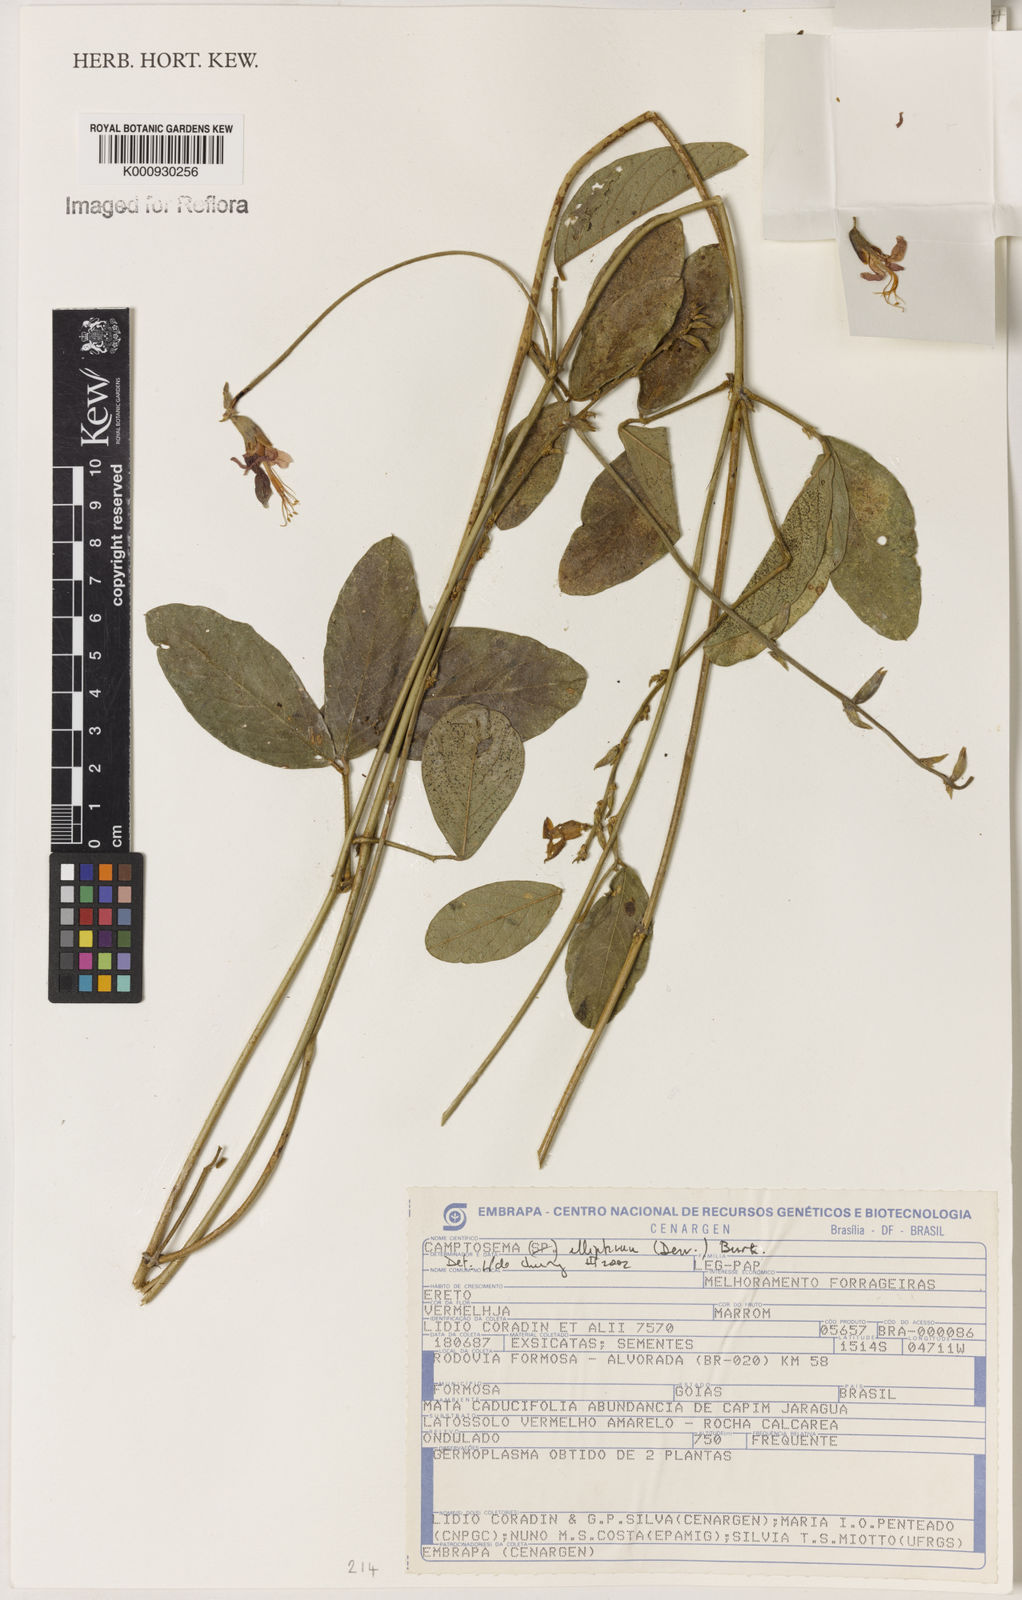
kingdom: Plantae
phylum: Tracheophyta
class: Magnoliopsida
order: Fabales
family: Fabaceae
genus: Camptosema
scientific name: Camptosema
